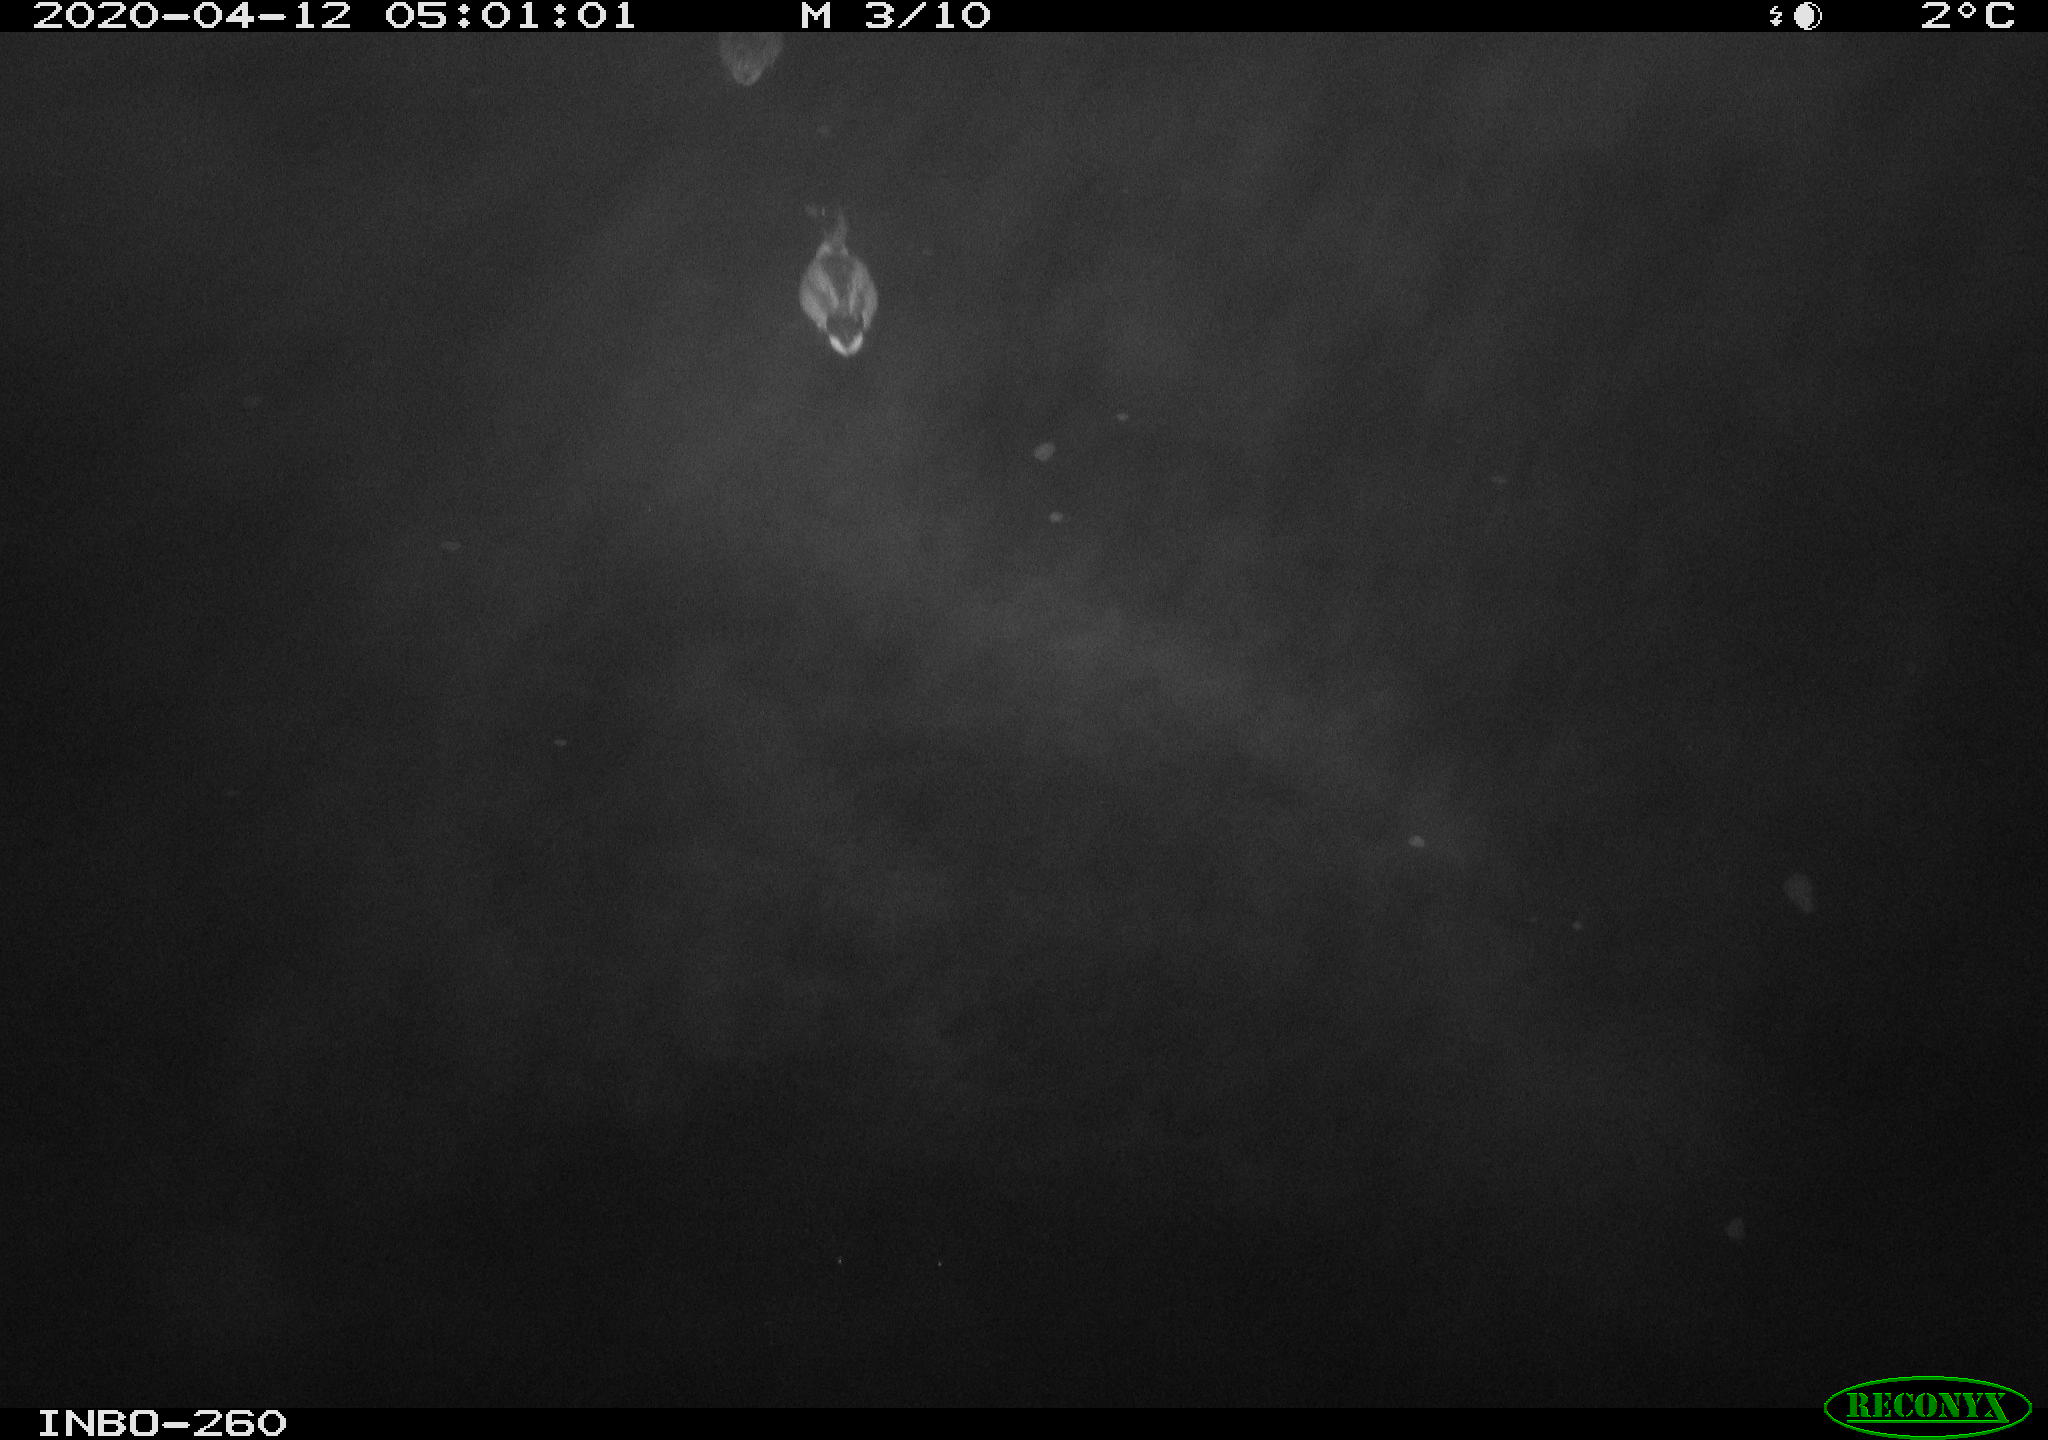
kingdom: Animalia
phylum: Chordata
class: Aves
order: Anseriformes
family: Anatidae
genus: Anas
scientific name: Anas platyrhynchos
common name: Mallard
